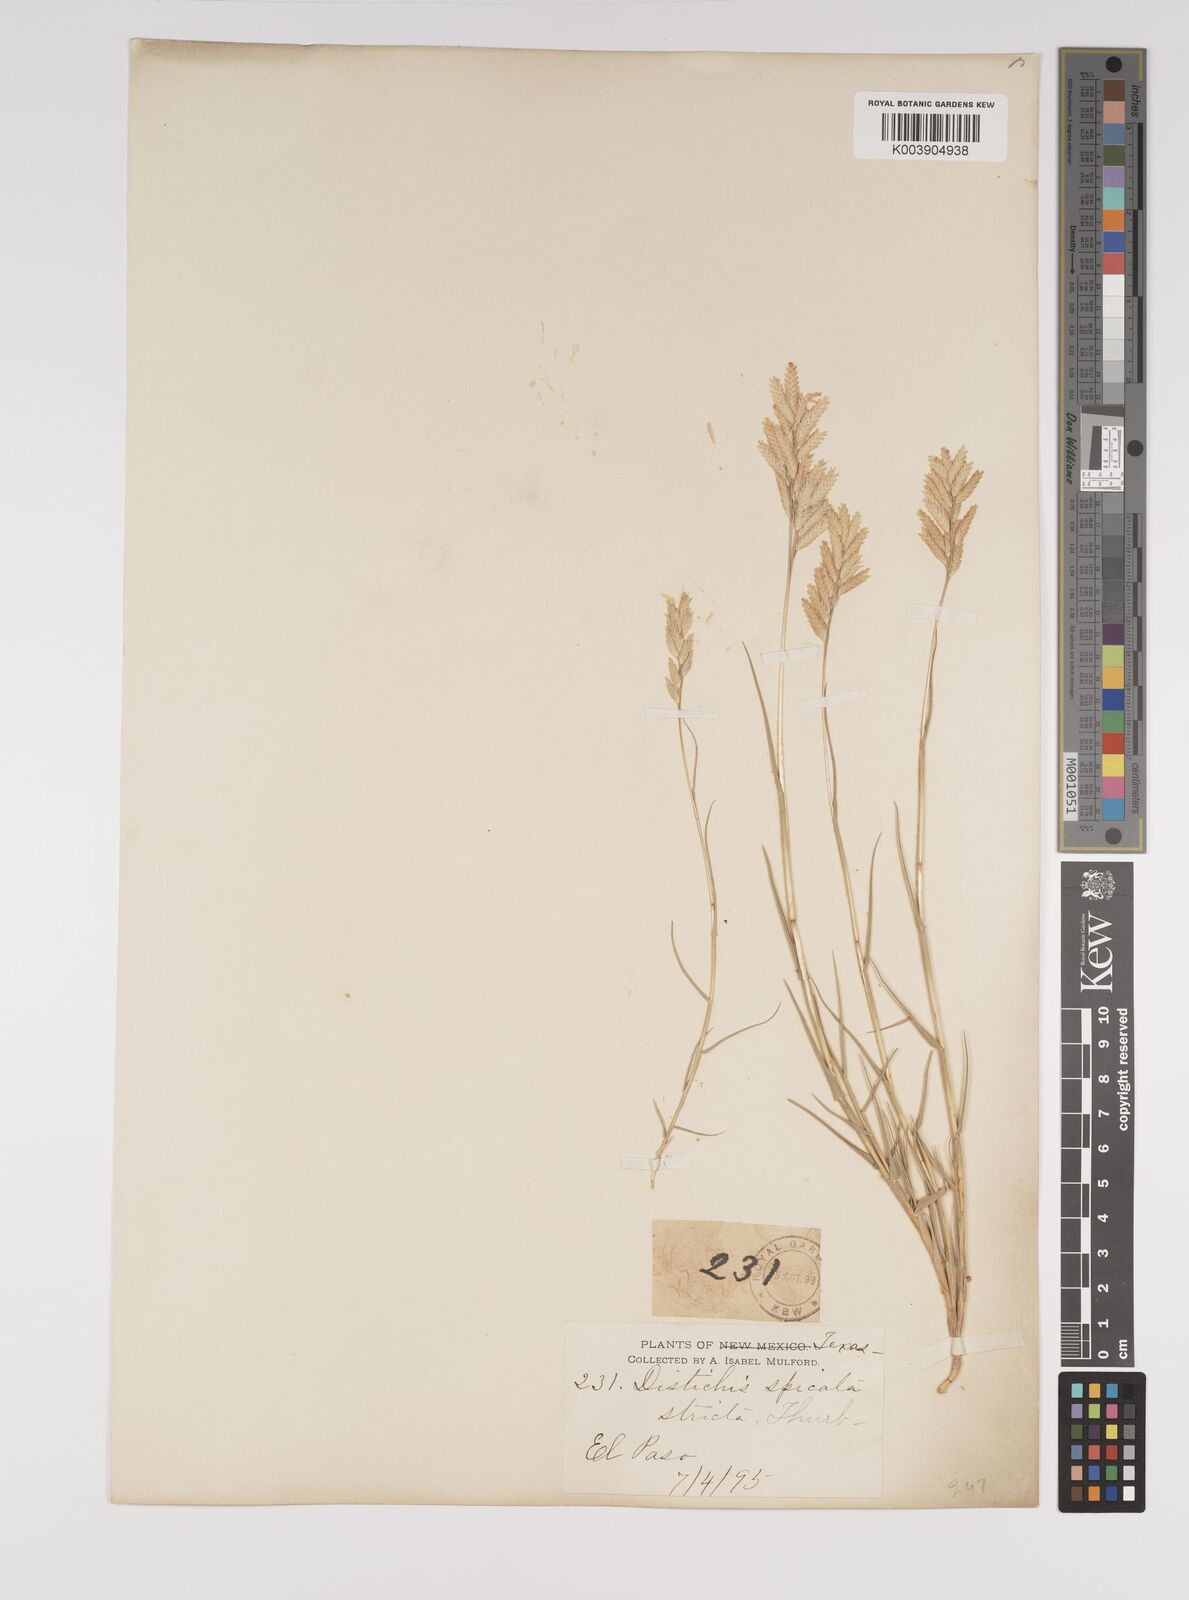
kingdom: Plantae
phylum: Tracheophyta
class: Liliopsida
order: Poales
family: Poaceae
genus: Distichlis
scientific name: Distichlis spicata
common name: Saltgrass
